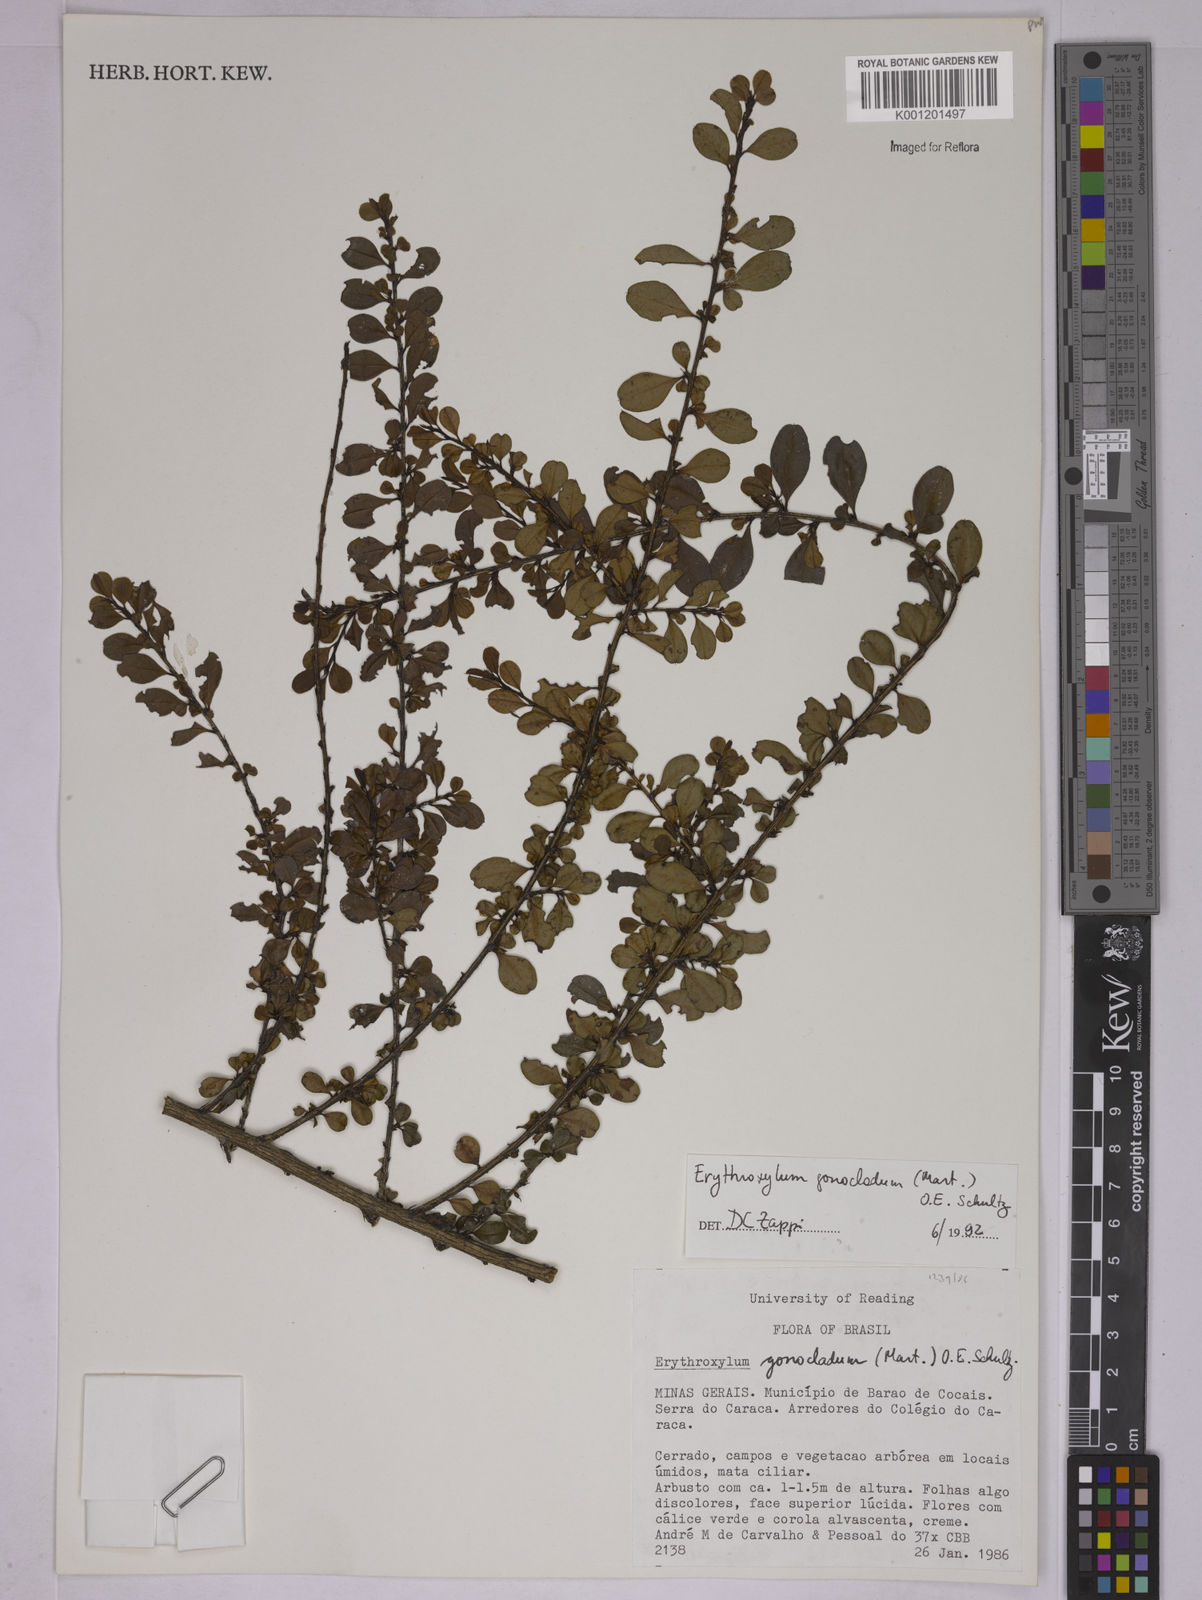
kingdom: Plantae
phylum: Tracheophyta
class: Magnoliopsida
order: Malpighiales
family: Erythroxylaceae
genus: Erythroxylum
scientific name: Erythroxylum
